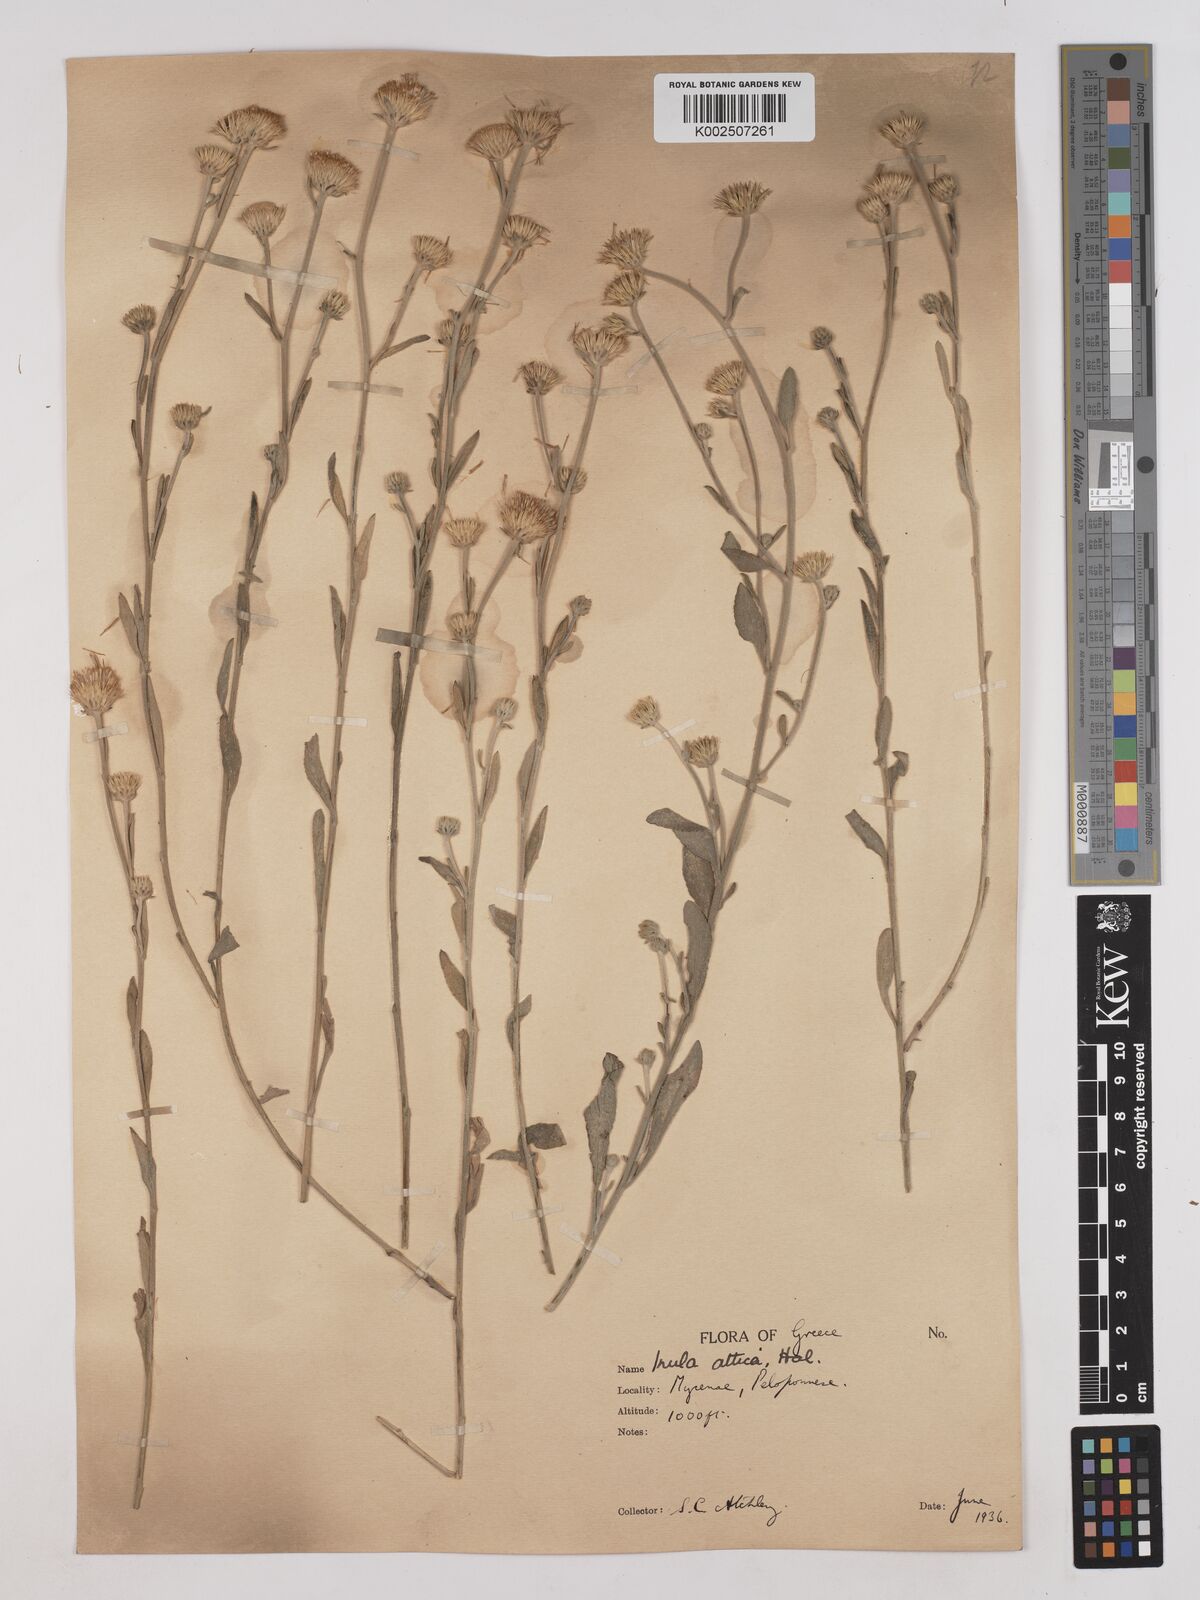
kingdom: Plantae
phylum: Tracheophyta
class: Magnoliopsida
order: Asterales
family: Asteraceae
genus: Pentanema
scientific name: Pentanema verbascifolium
